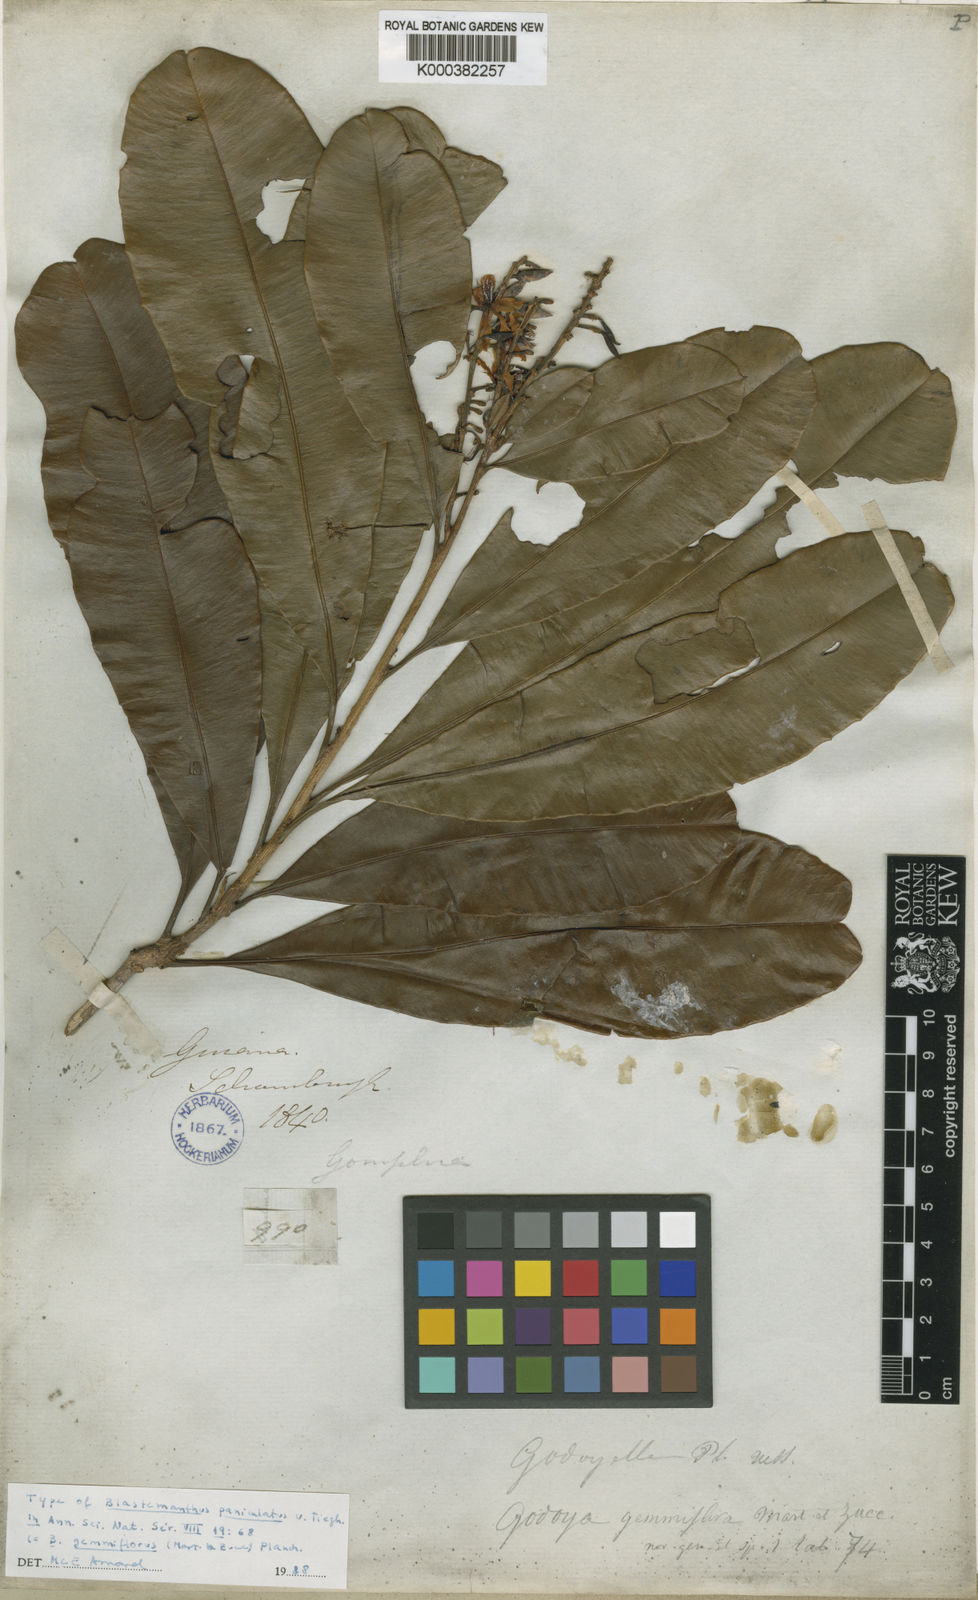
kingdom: Plantae
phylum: Tracheophyta
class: Magnoliopsida
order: Malpighiales
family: Ochnaceae
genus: Blastemanthus
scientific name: Blastemanthus gemmiflorus
